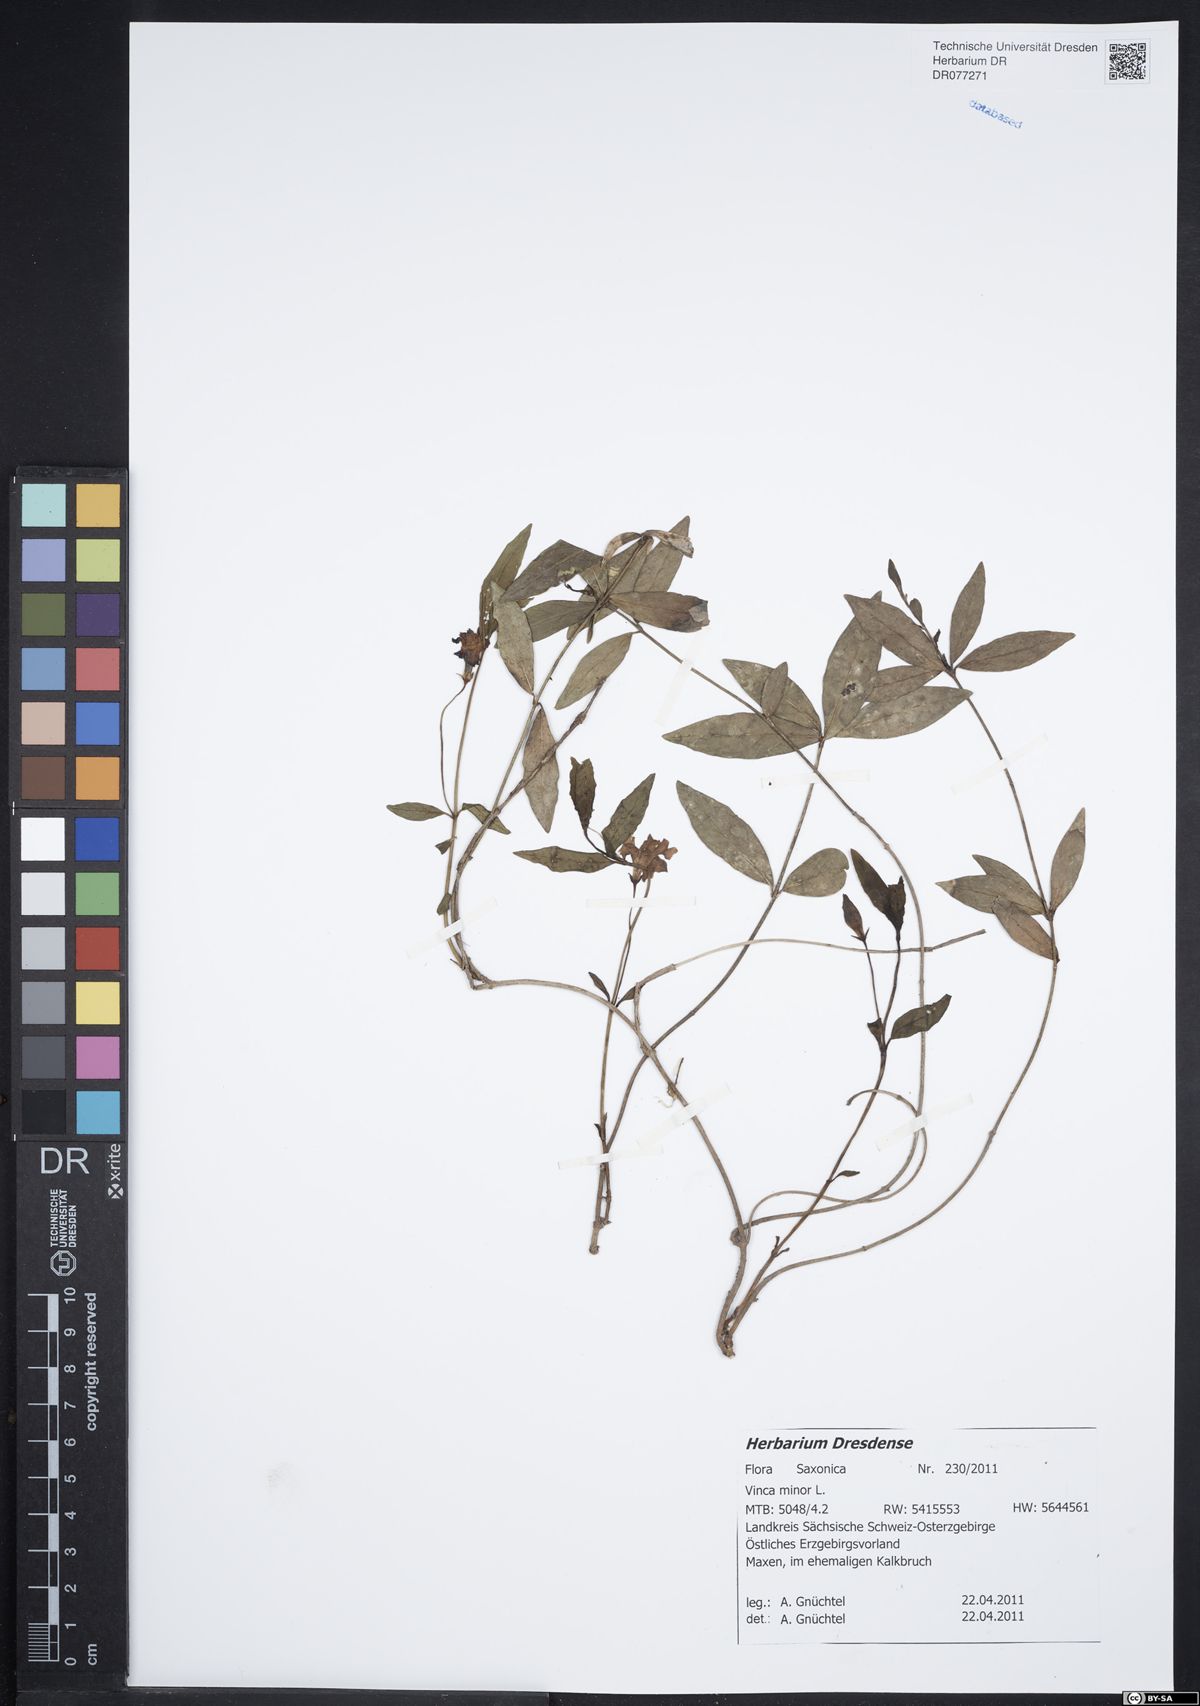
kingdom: Plantae
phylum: Tracheophyta
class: Magnoliopsida
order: Gentianales
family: Apocynaceae
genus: Vinca
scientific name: Vinca minor
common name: Lesser periwinkle
